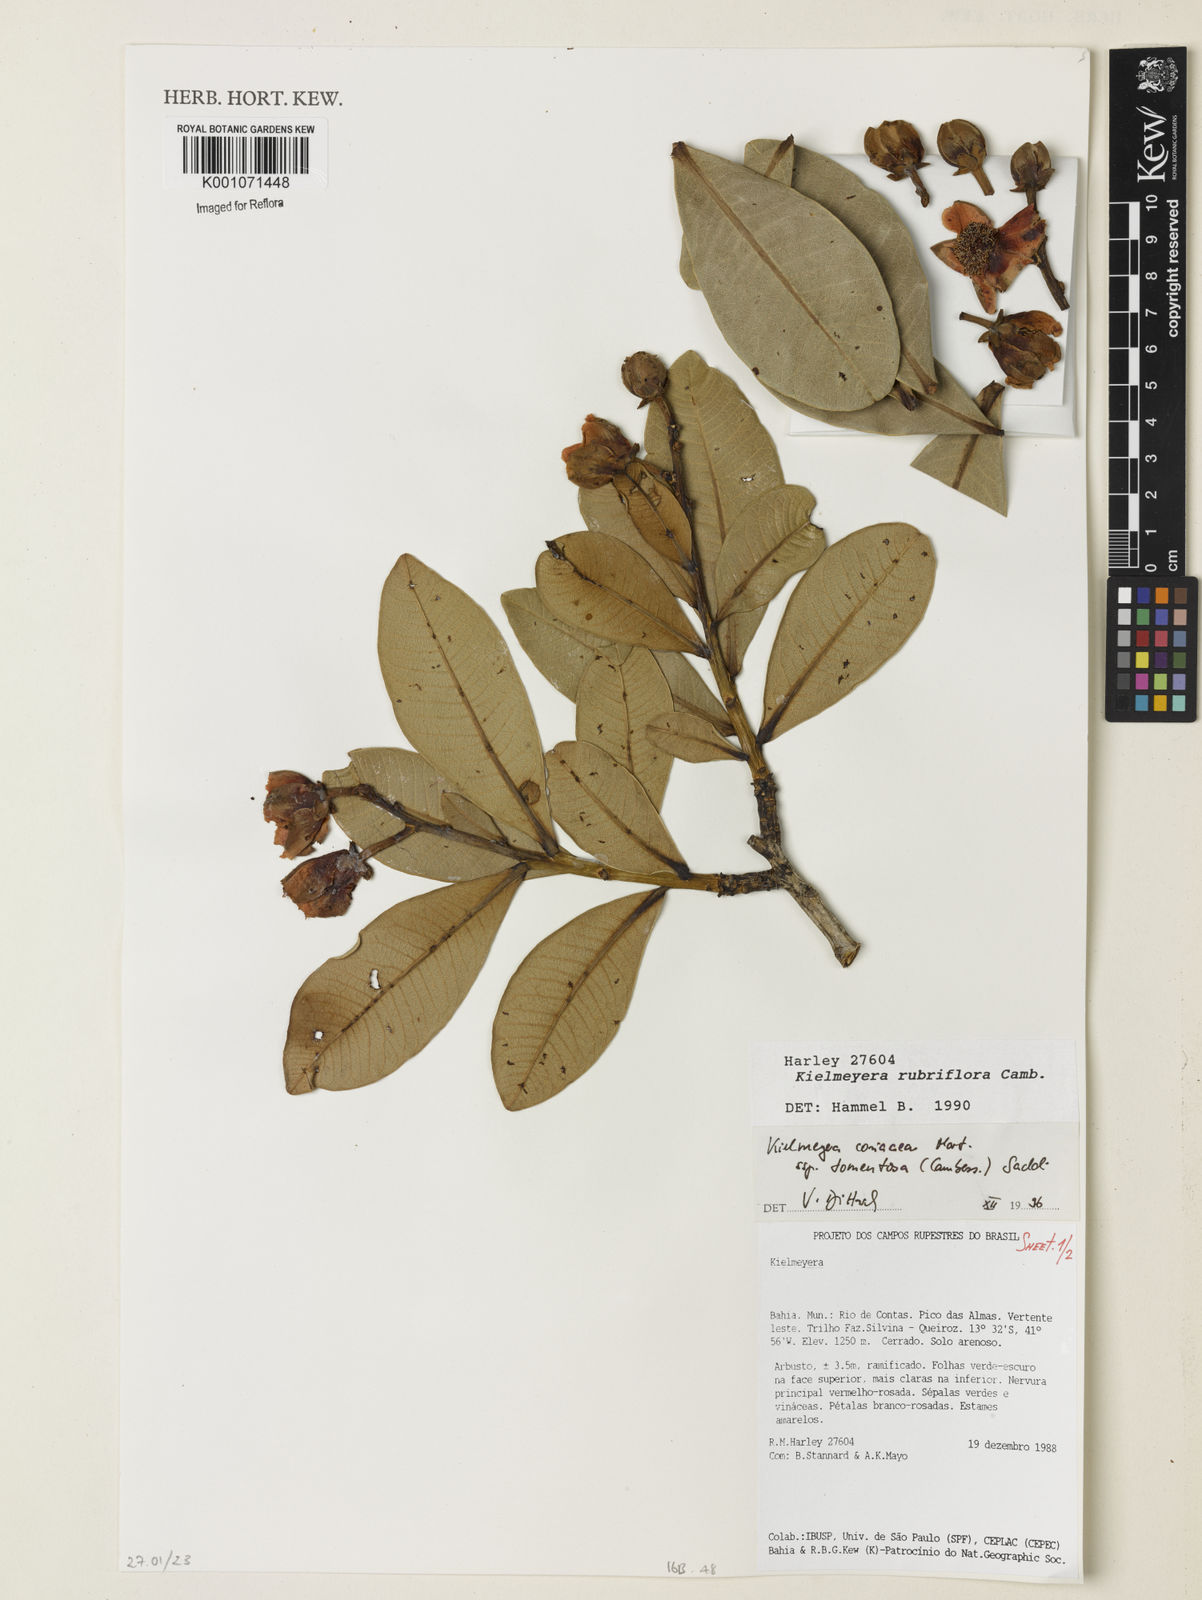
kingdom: Plantae
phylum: Tracheophyta
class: Magnoliopsida
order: Malpighiales
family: Calophyllaceae
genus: Kielmeyera
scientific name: Kielmeyera coriacea
